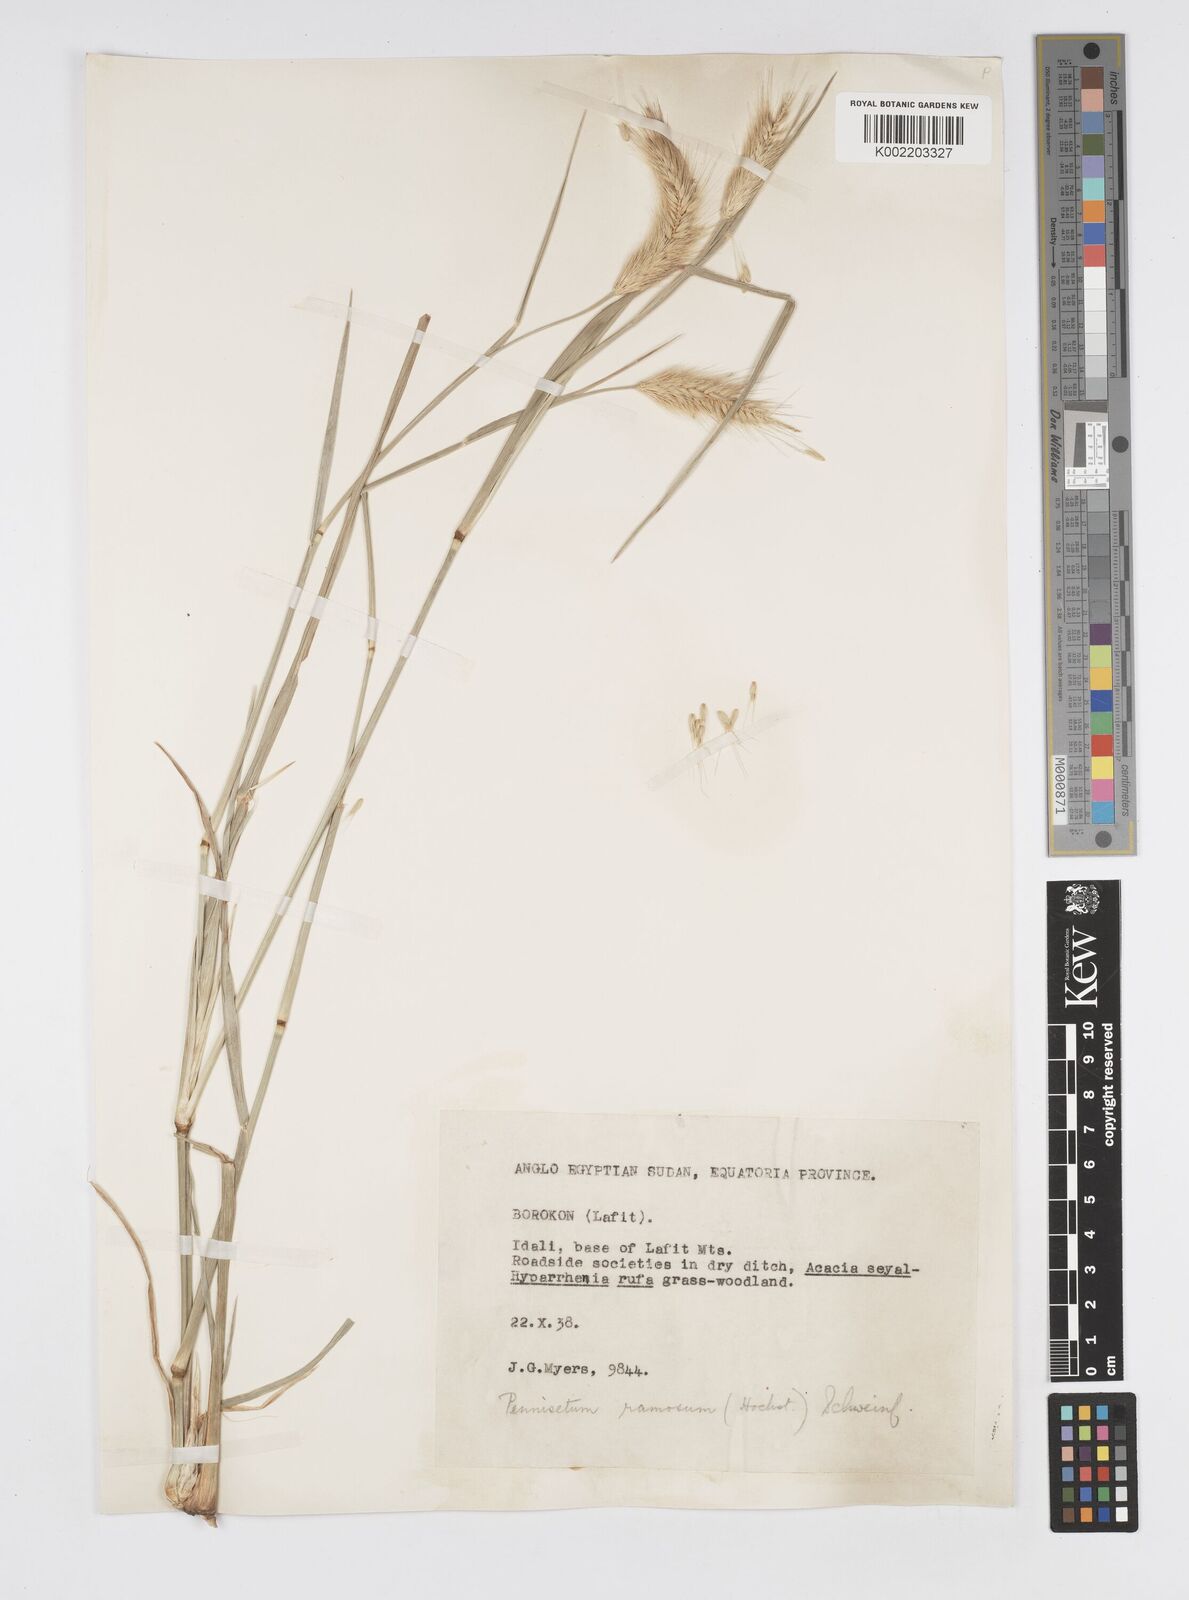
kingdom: Plantae
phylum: Tracheophyta
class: Liliopsida
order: Poales
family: Poaceae
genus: Cenchrus
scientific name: Cenchrus ramosus
